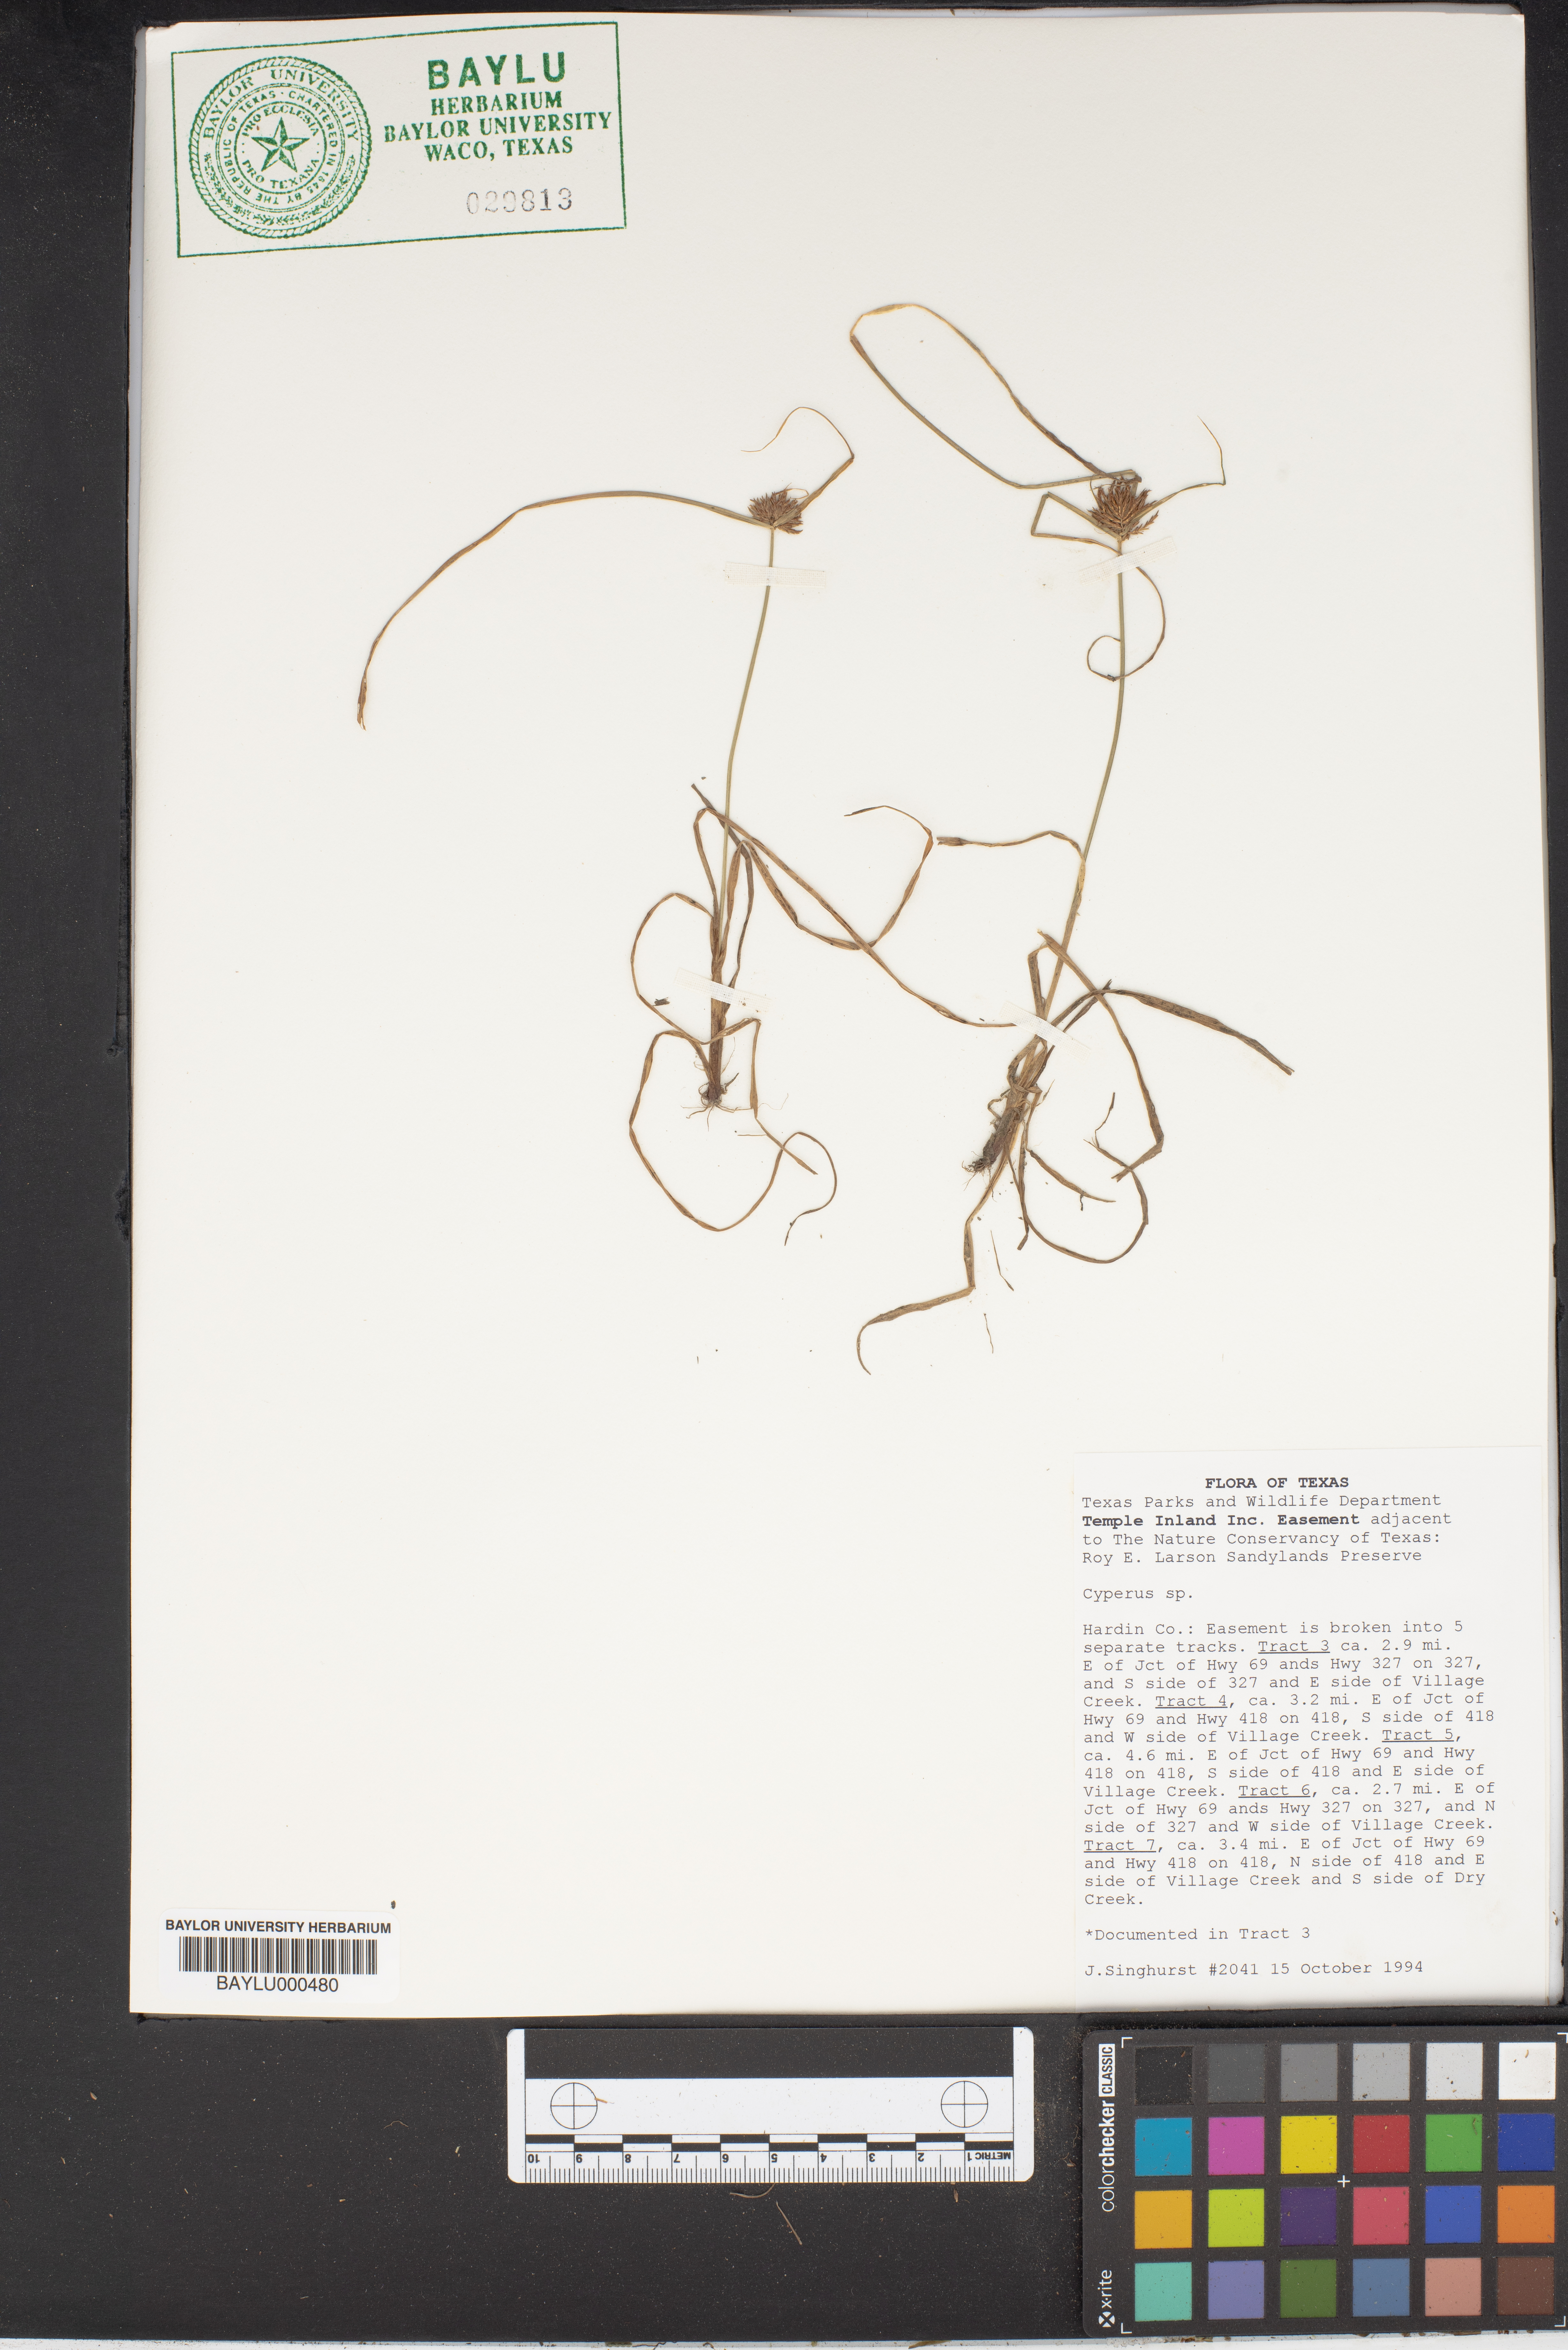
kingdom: Plantae
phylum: Tracheophyta
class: Liliopsida
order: Poales
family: Cyperaceae
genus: Cyperus
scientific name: Cyperus
